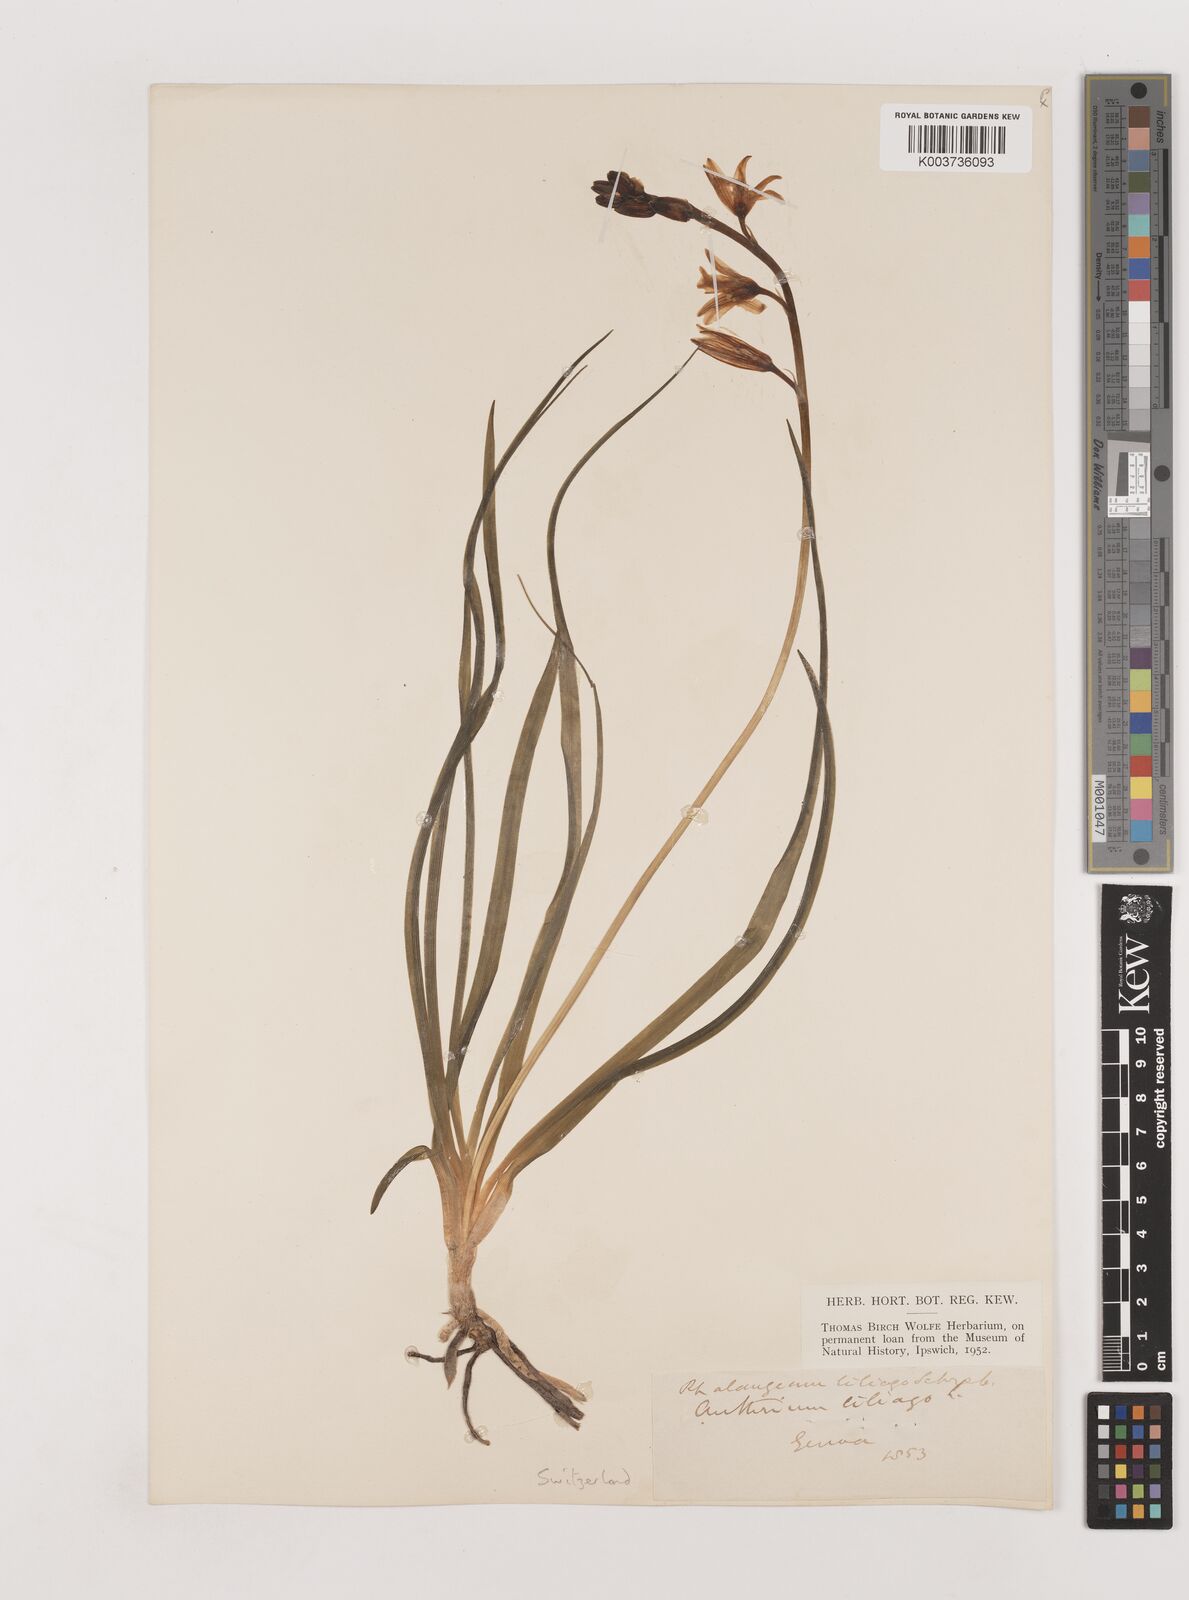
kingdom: Plantae
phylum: Tracheophyta
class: Liliopsida
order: Asparagales
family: Asparagaceae
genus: Anthericum
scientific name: Anthericum liliago
